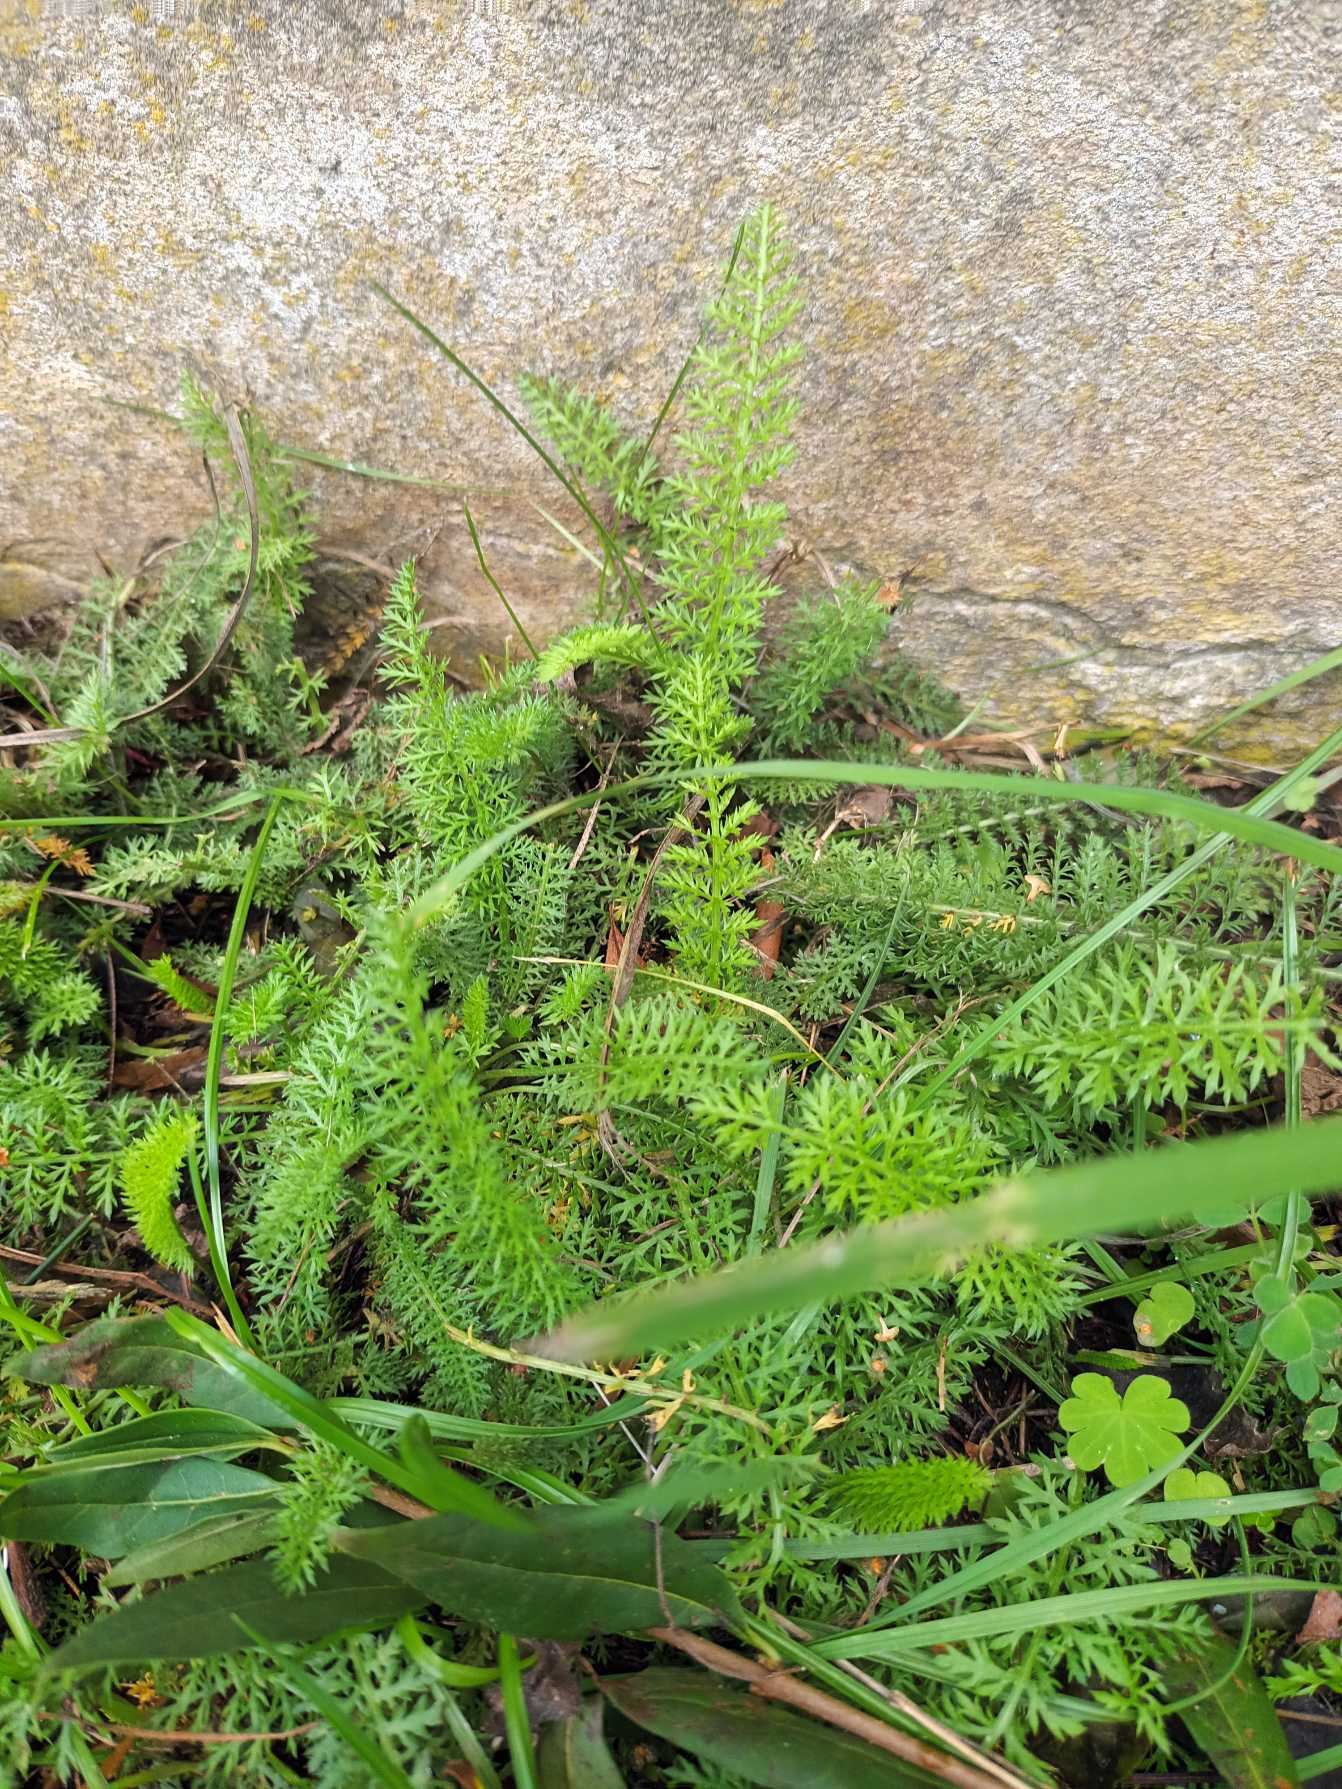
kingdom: Plantae
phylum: Tracheophyta
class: Magnoliopsida
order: Asterales
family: Asteraceae
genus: Achillea
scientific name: Achillea millefolium
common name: Almindelig røllike
